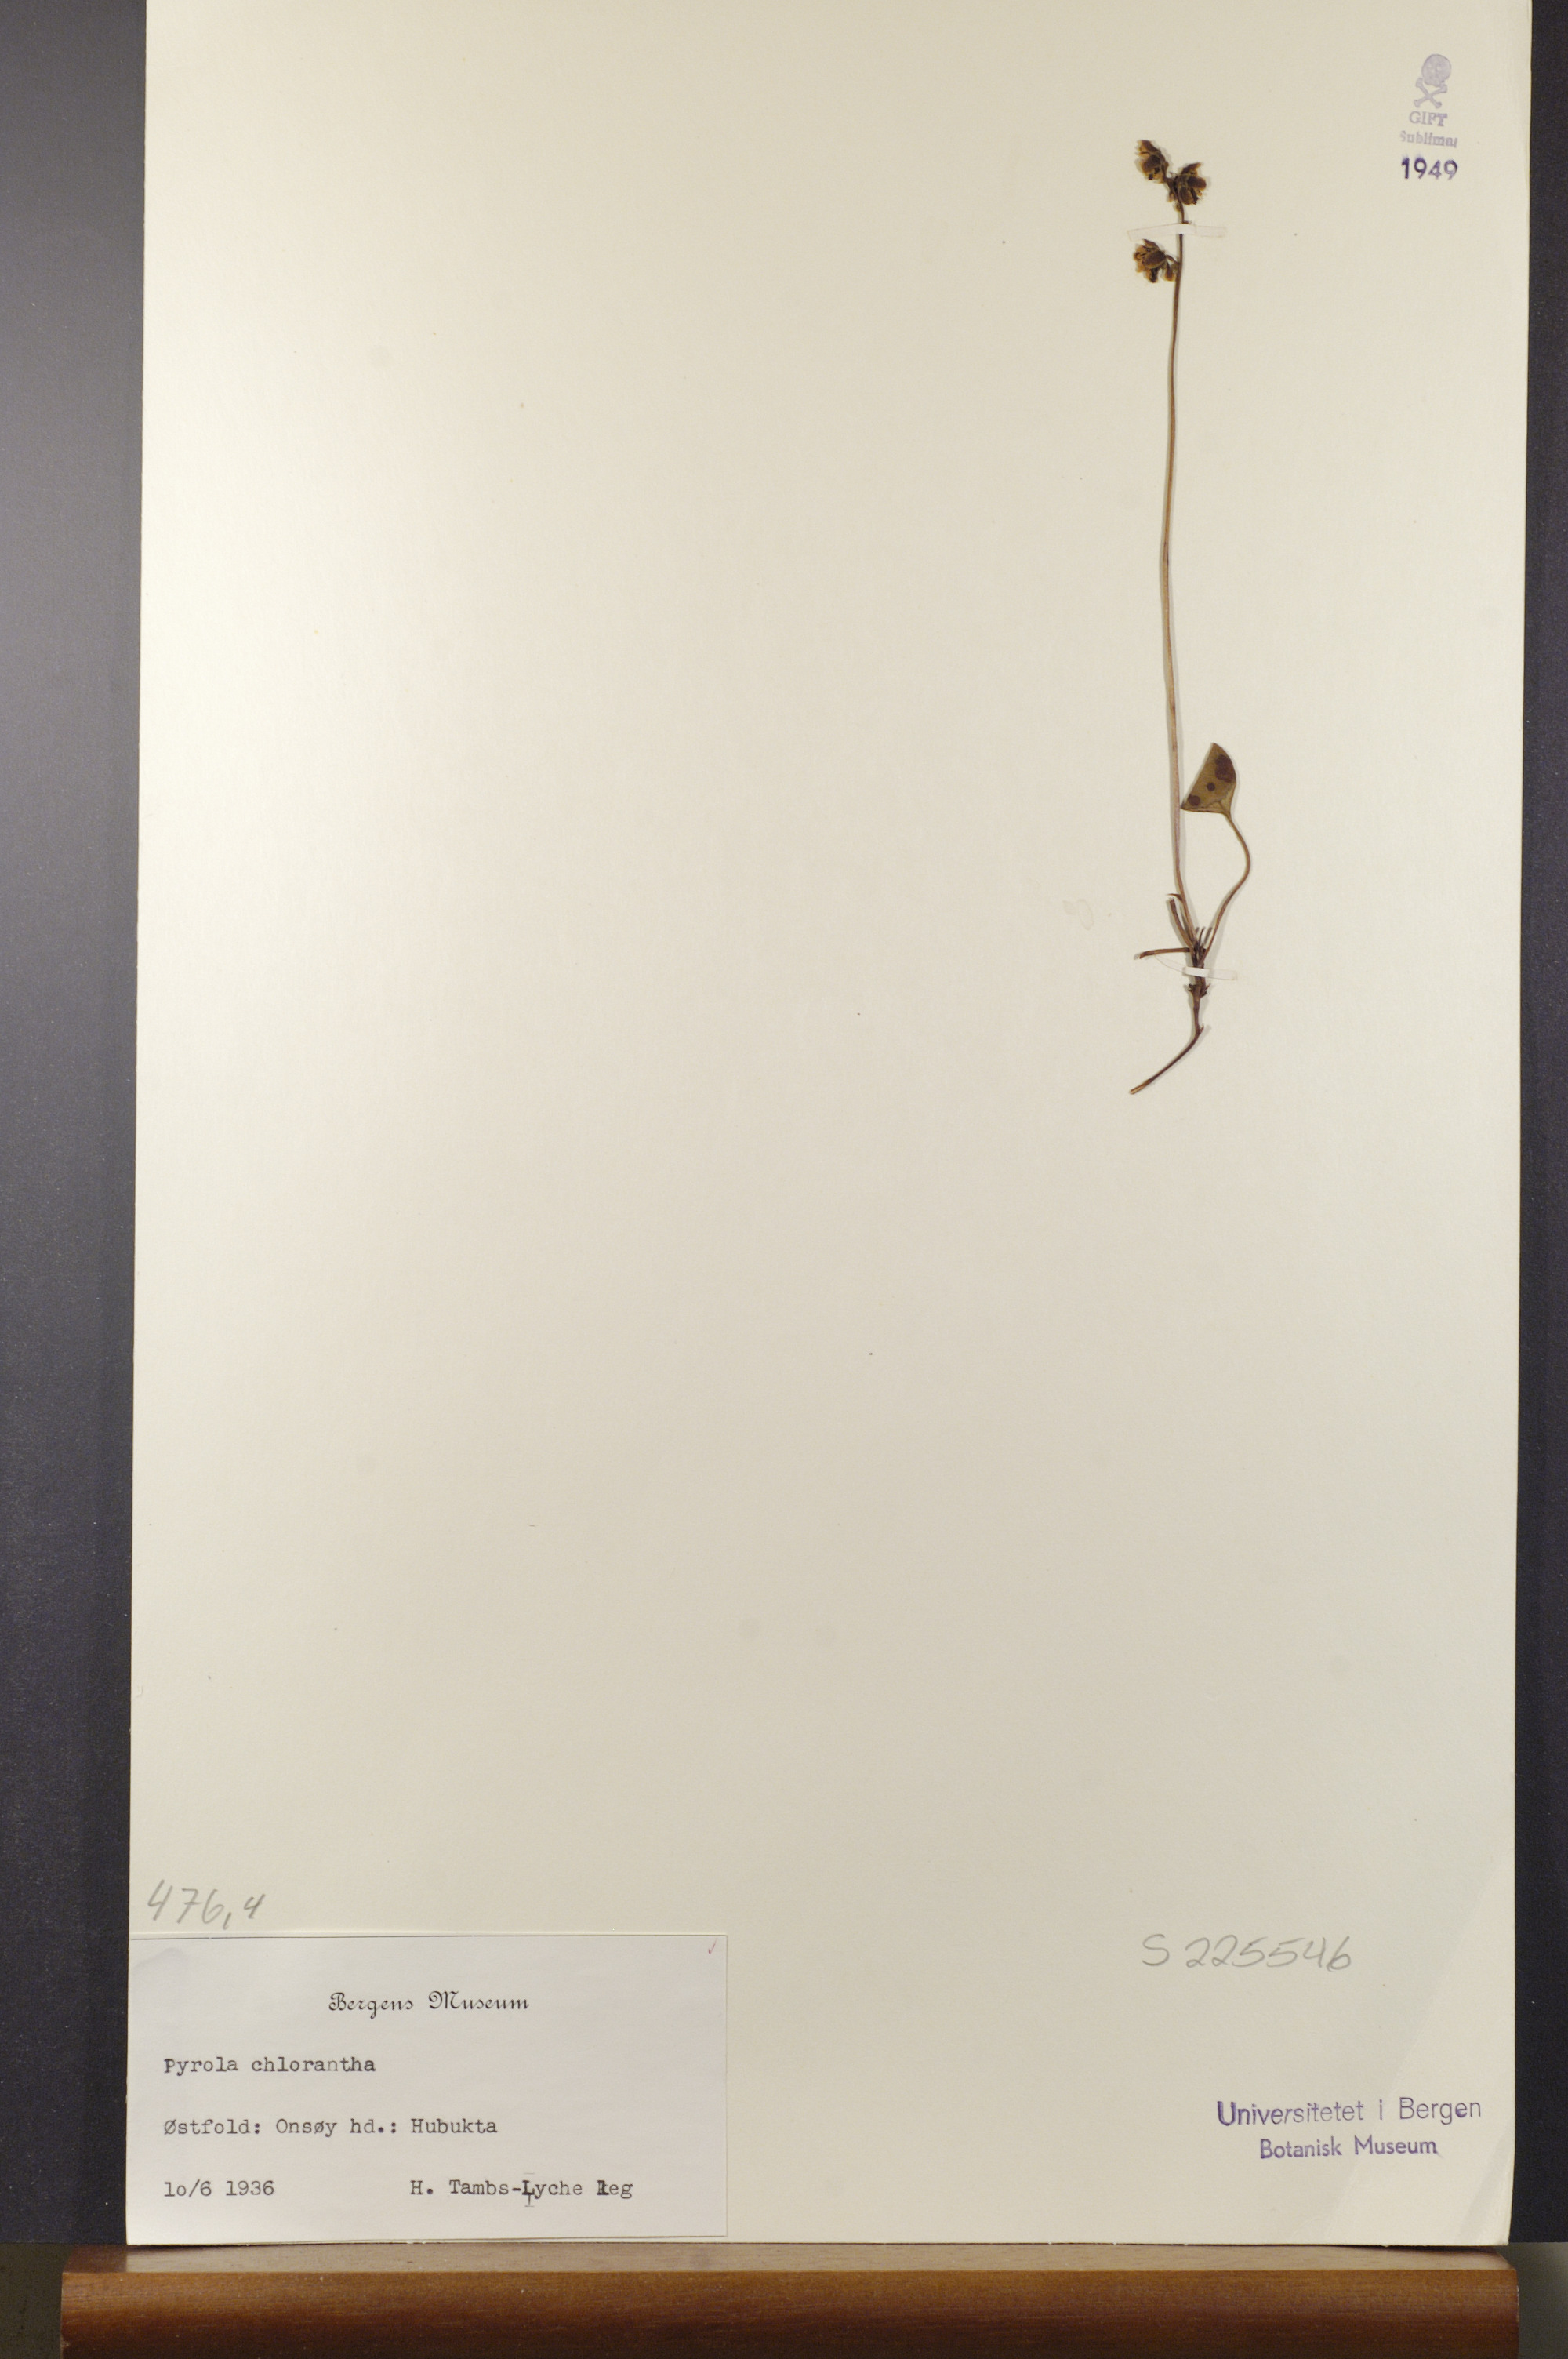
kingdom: Plantae
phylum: Tracheophyta
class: Magnoliopsida
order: Ericales
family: Ericaceae
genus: Pyrola
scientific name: Pyrola chlorantha
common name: Green wintergreen
